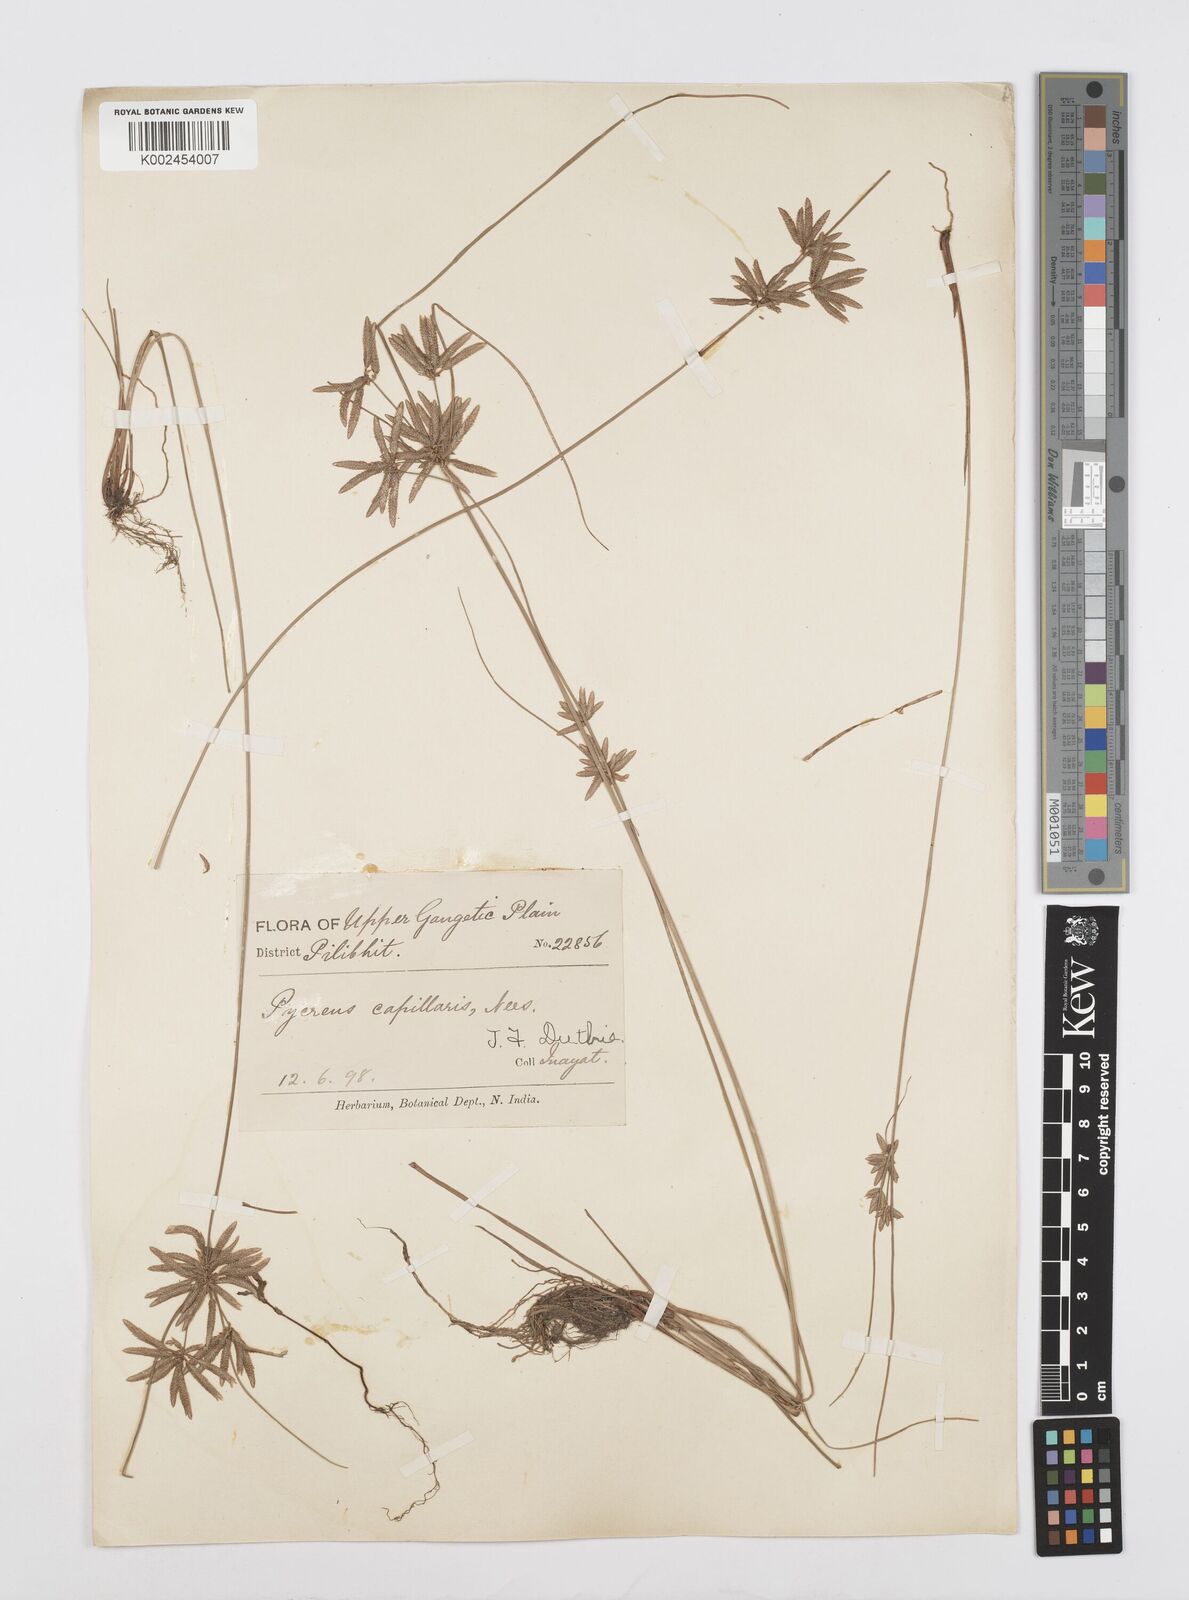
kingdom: Plantae
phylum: Tracheophyta
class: Liliopsida
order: Poales
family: Cyperaceae
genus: Cyperus
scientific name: Cyperus flavidus
